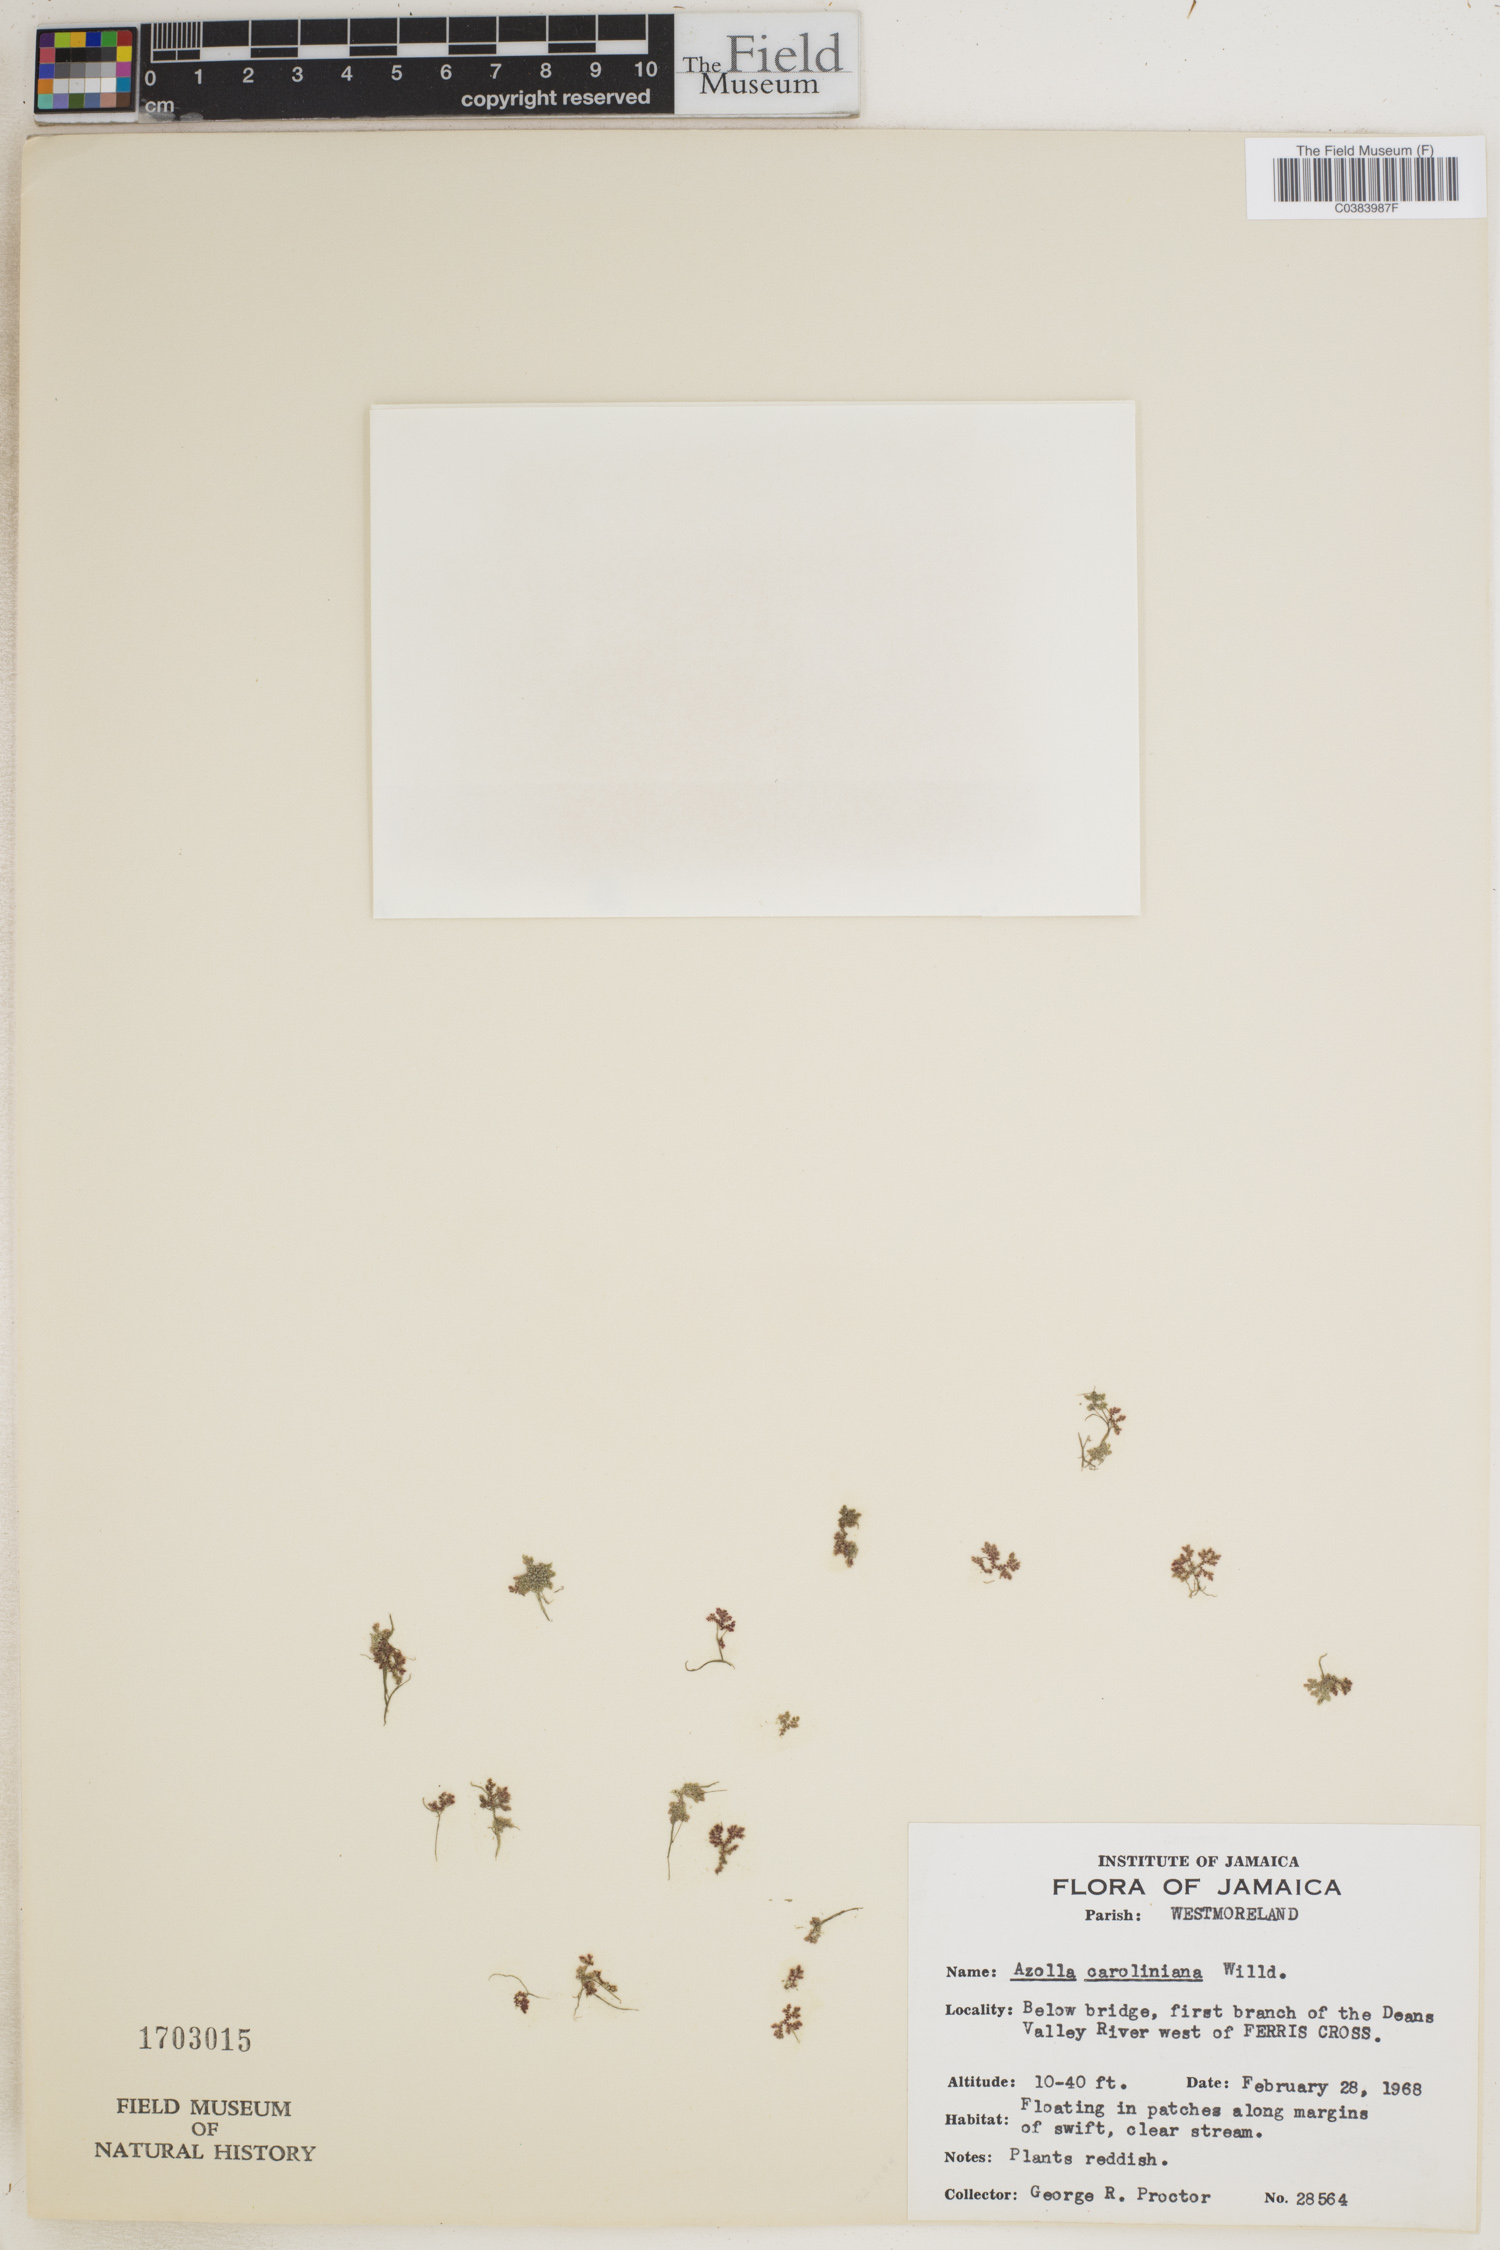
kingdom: Plantae
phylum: Tracheophyta
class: Polypodiopsida
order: Salviniales
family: Salviniaceae
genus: Azolla
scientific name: Azolla caroliniana
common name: Carolina mosquitofern
